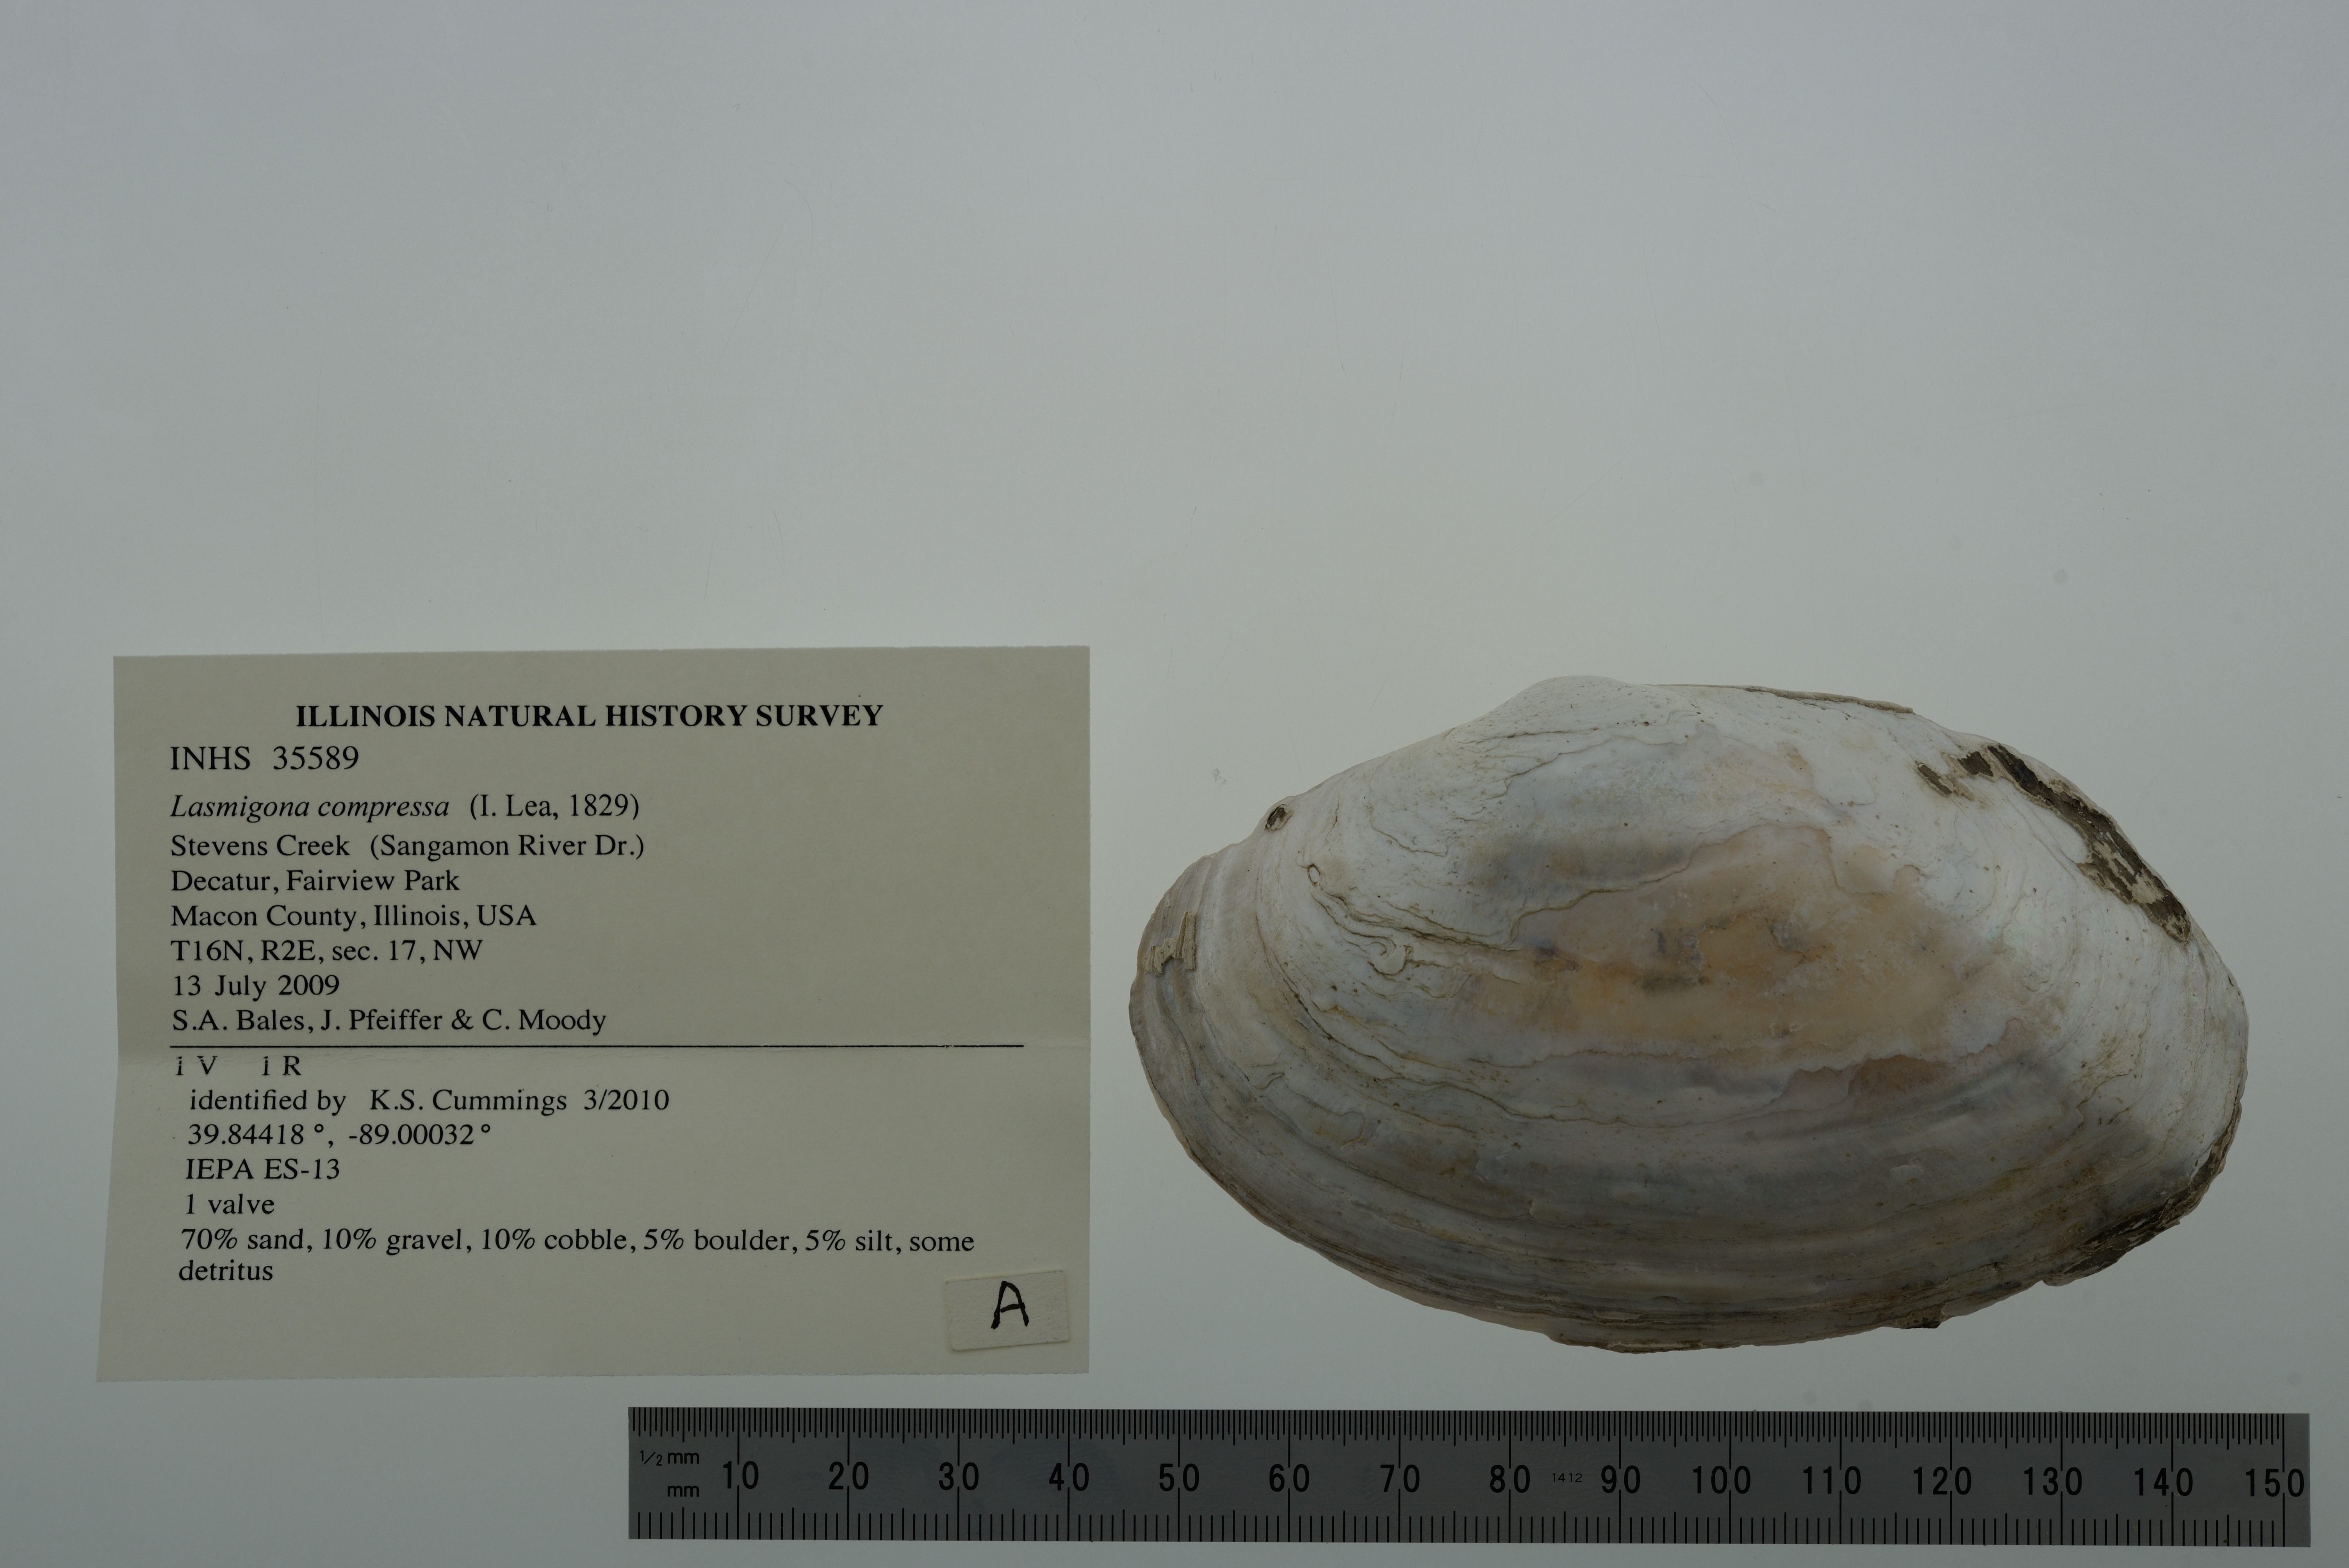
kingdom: Animalia
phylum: Mollusca
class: Bivalvia
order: Unionida
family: Unionidae
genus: Lasmigona
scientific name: Lasmigona compressa
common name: Creek heelsplitter
